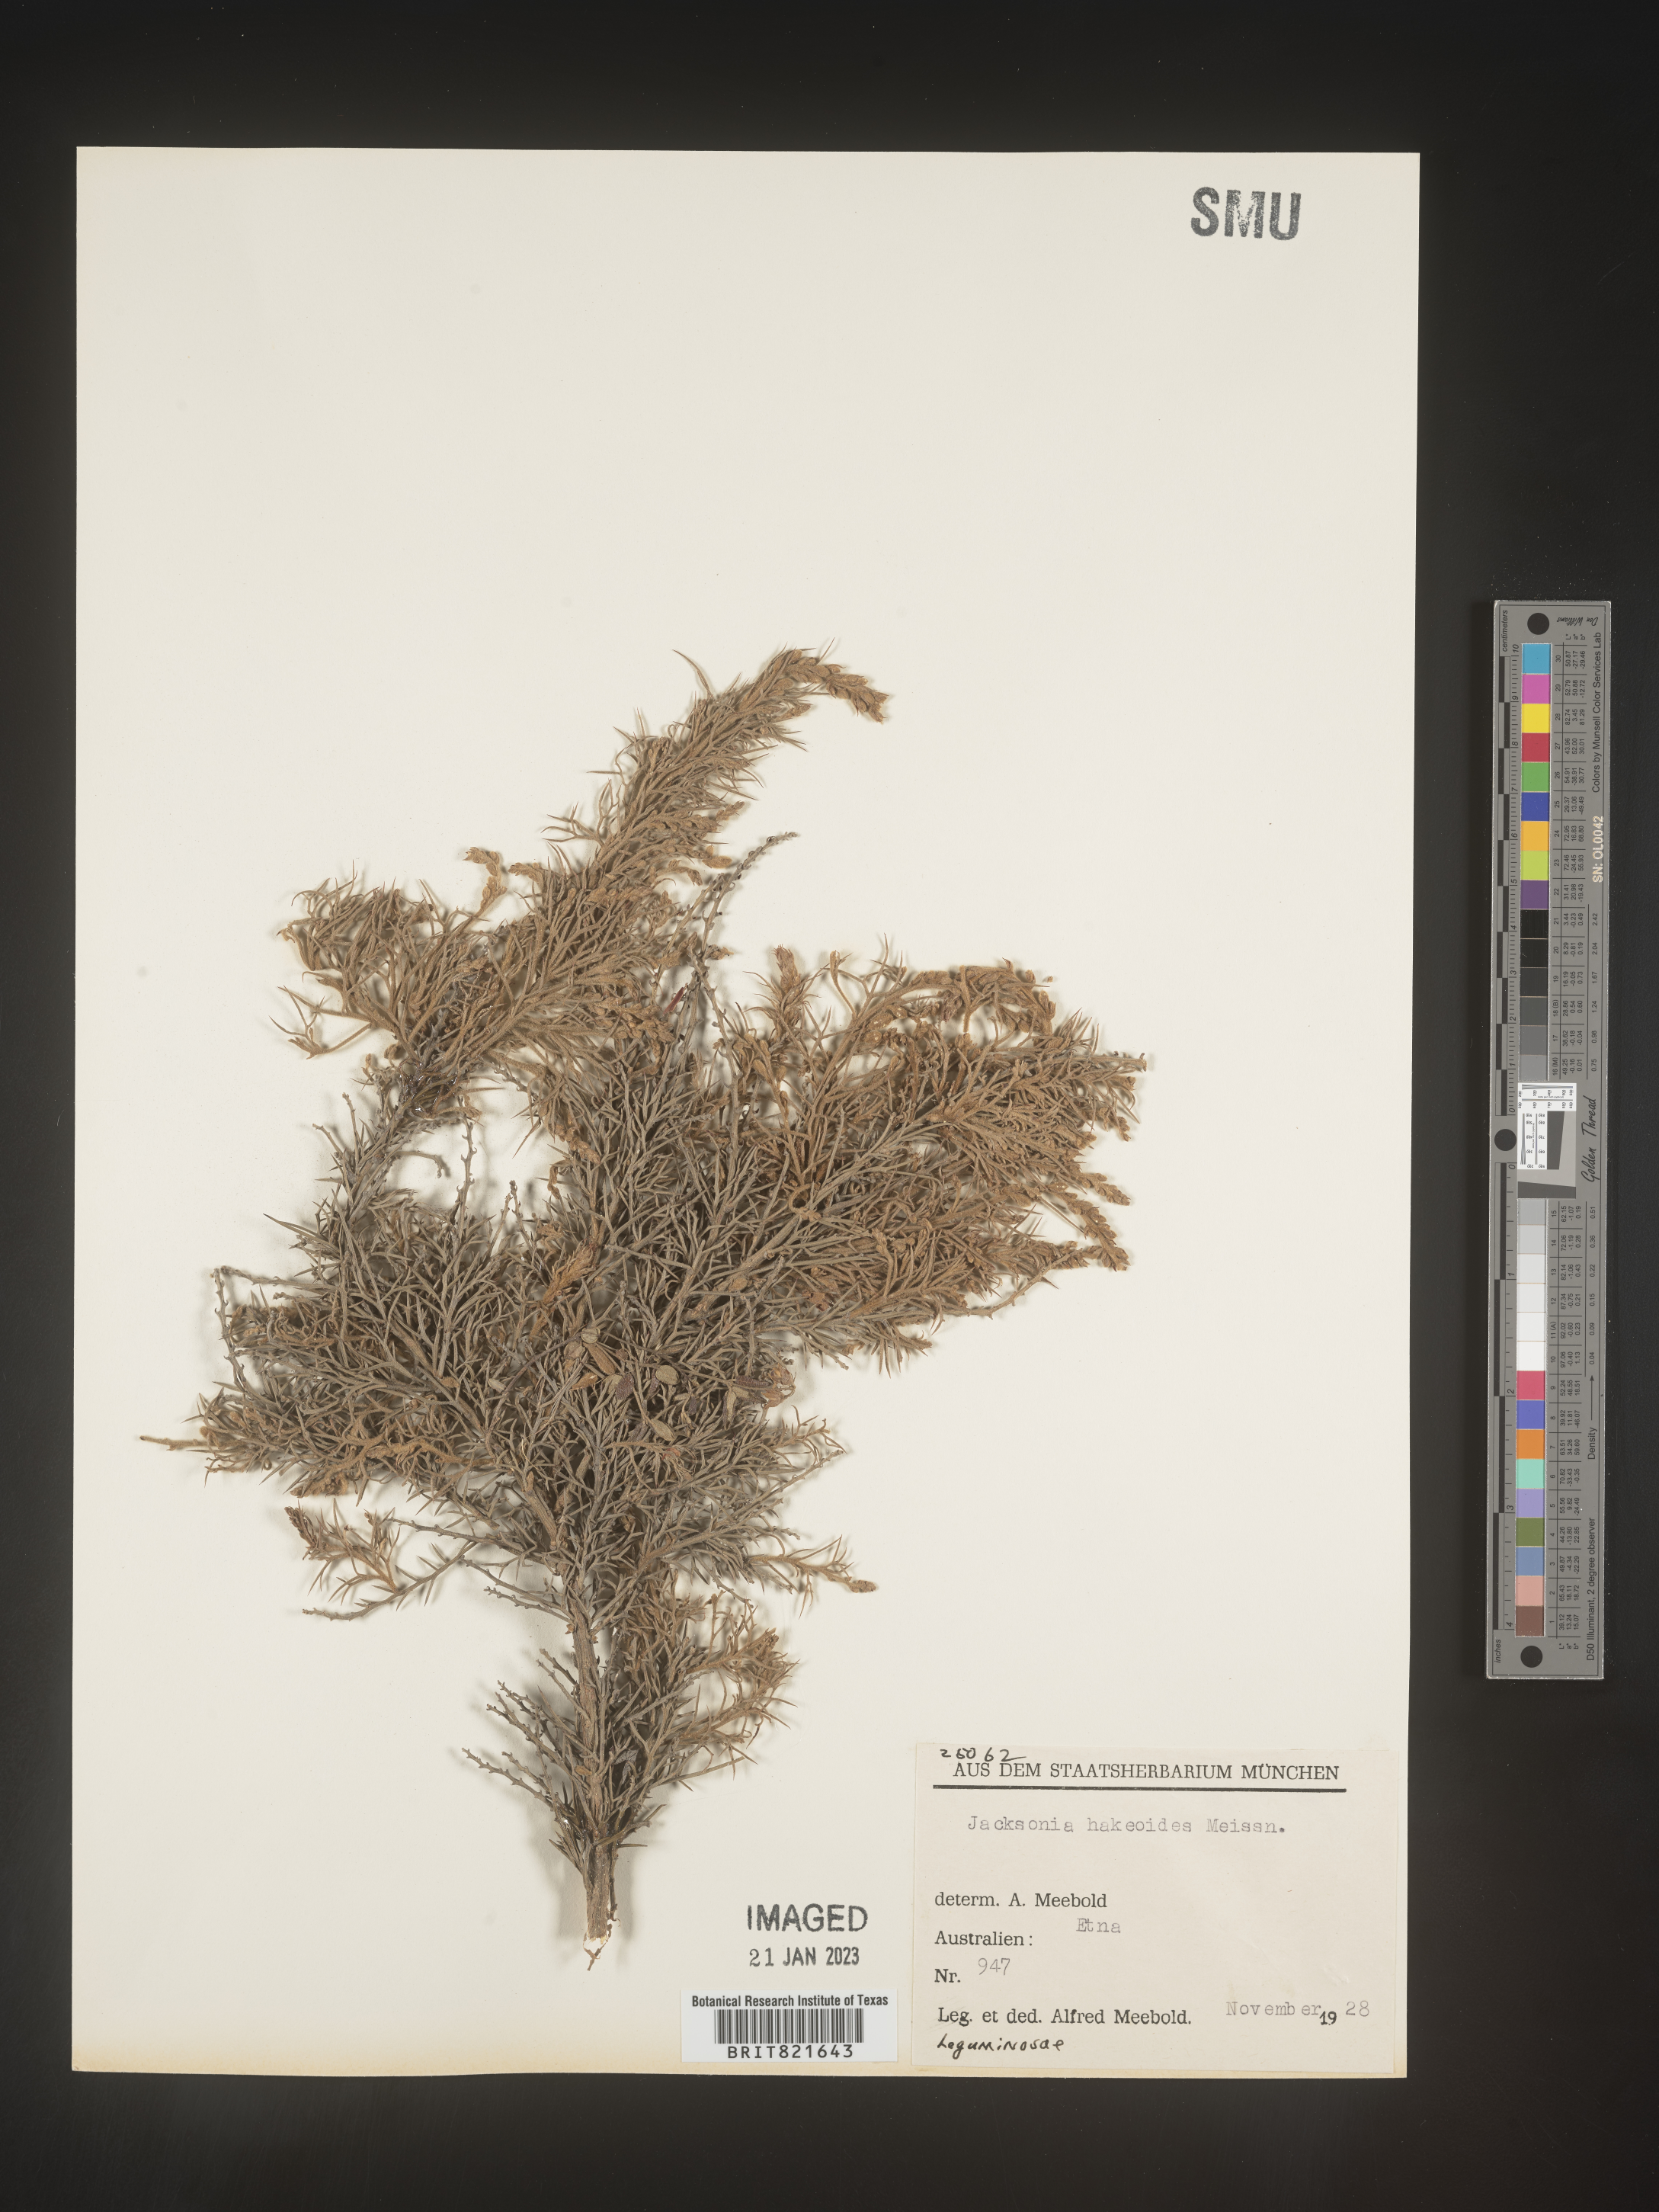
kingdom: Plantae
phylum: Tracheophyta
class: Magnoliopsida
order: Fabales
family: Fabaceae
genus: Jacksonia
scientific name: Jacksonia
